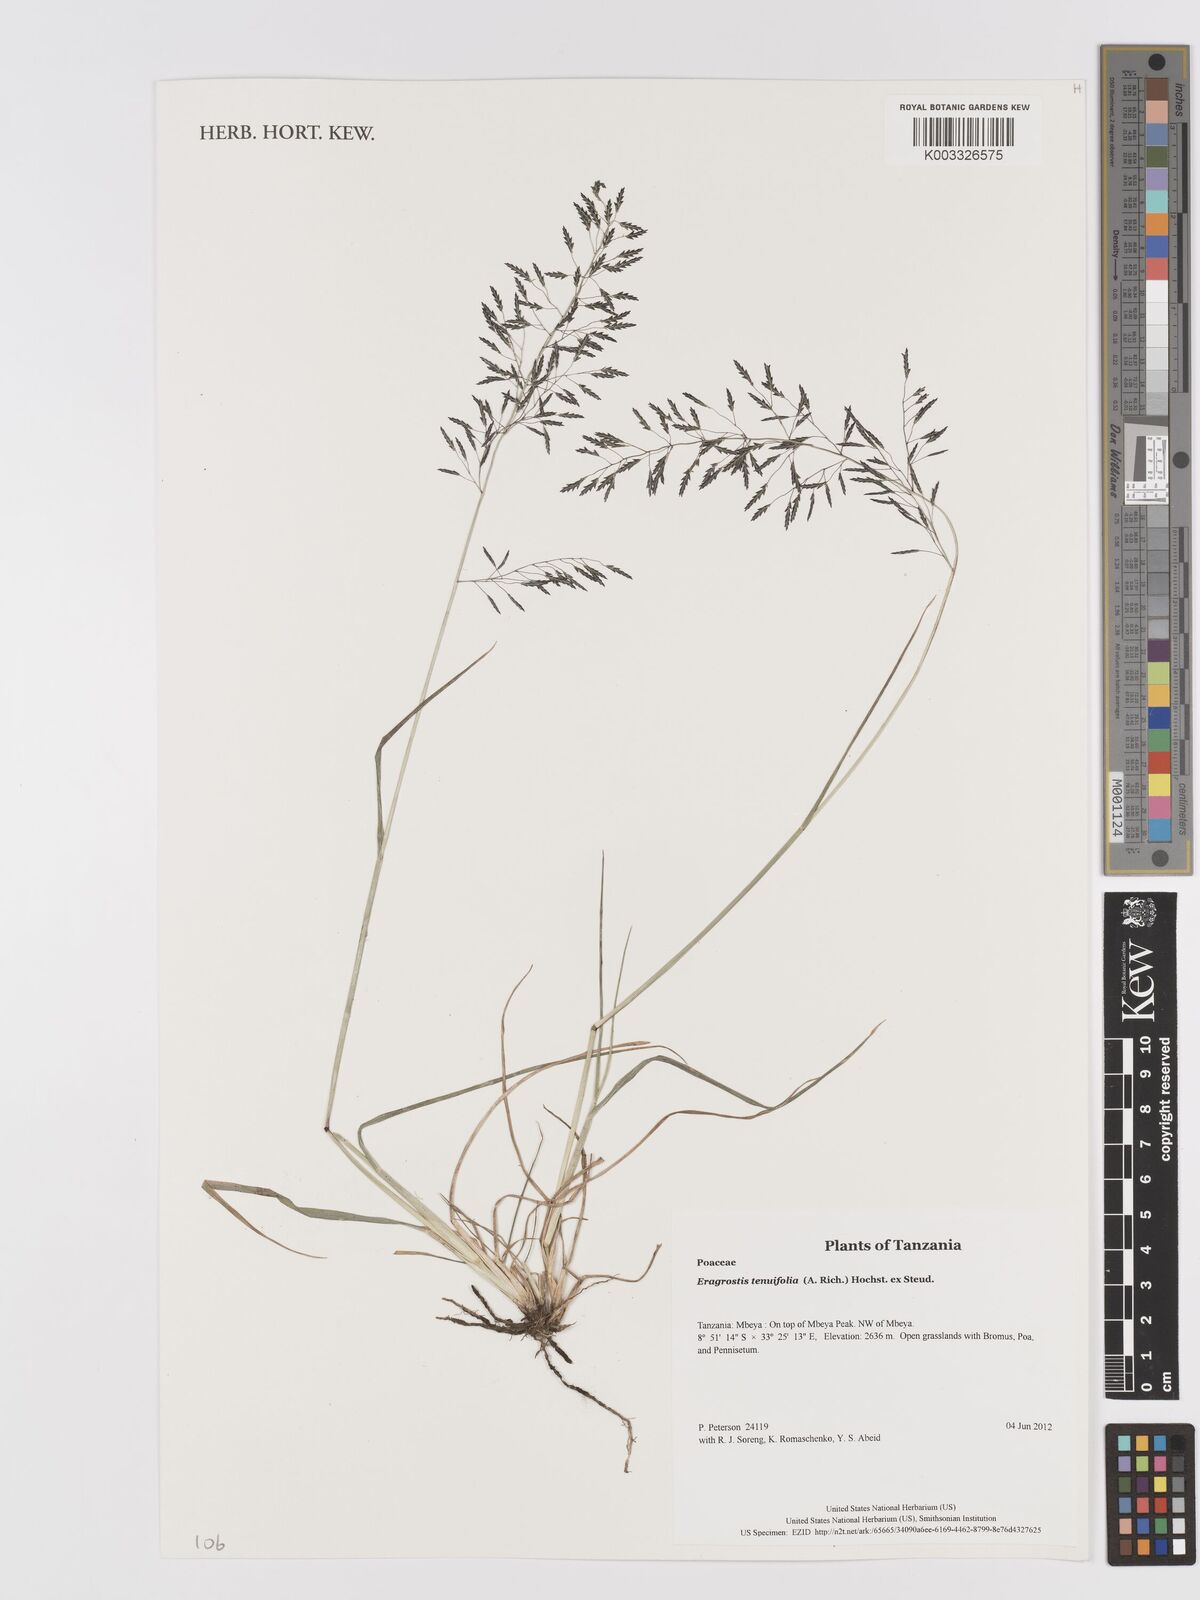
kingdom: Plantae
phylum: Tracheophyta
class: Liliopsida
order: Poales
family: Poaceae
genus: Eragrostis
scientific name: Eragrostis tenuifolia
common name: Elastic grass
